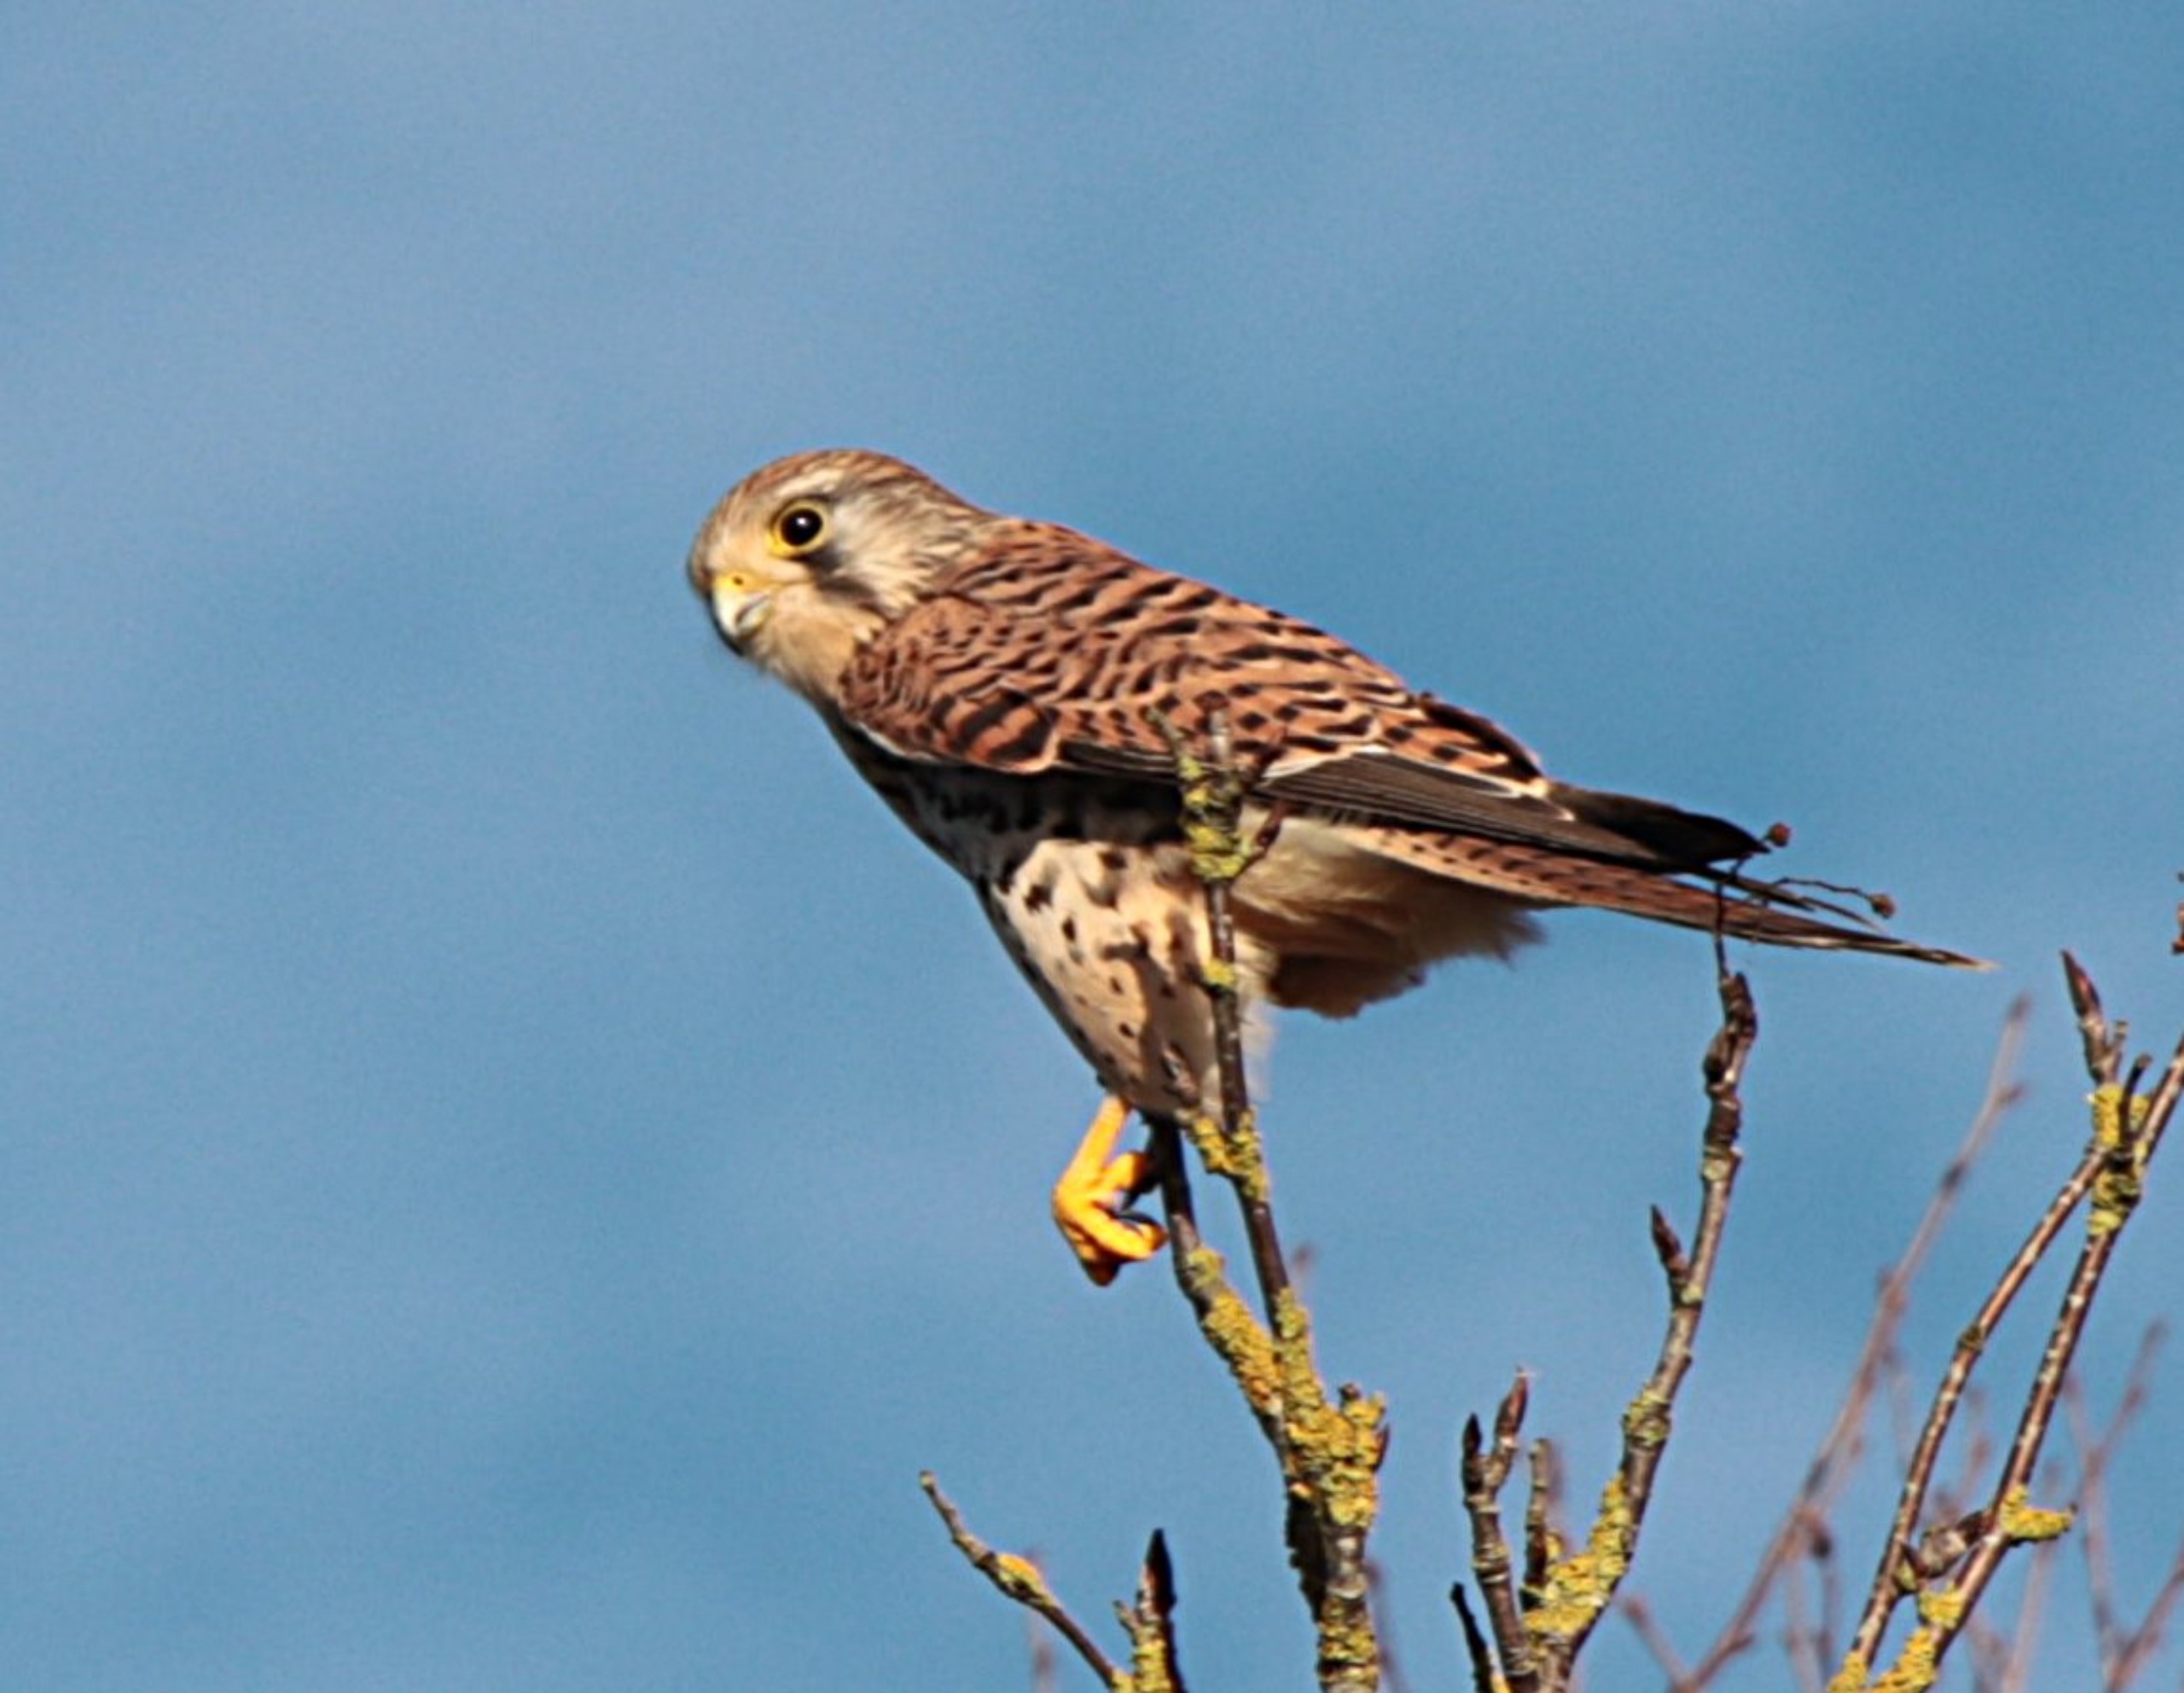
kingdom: Animalia
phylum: Chordata
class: Aves
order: Falconiformes
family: Falconidae
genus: Falco
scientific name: Falco tinnunculus
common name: Tårnfalk
